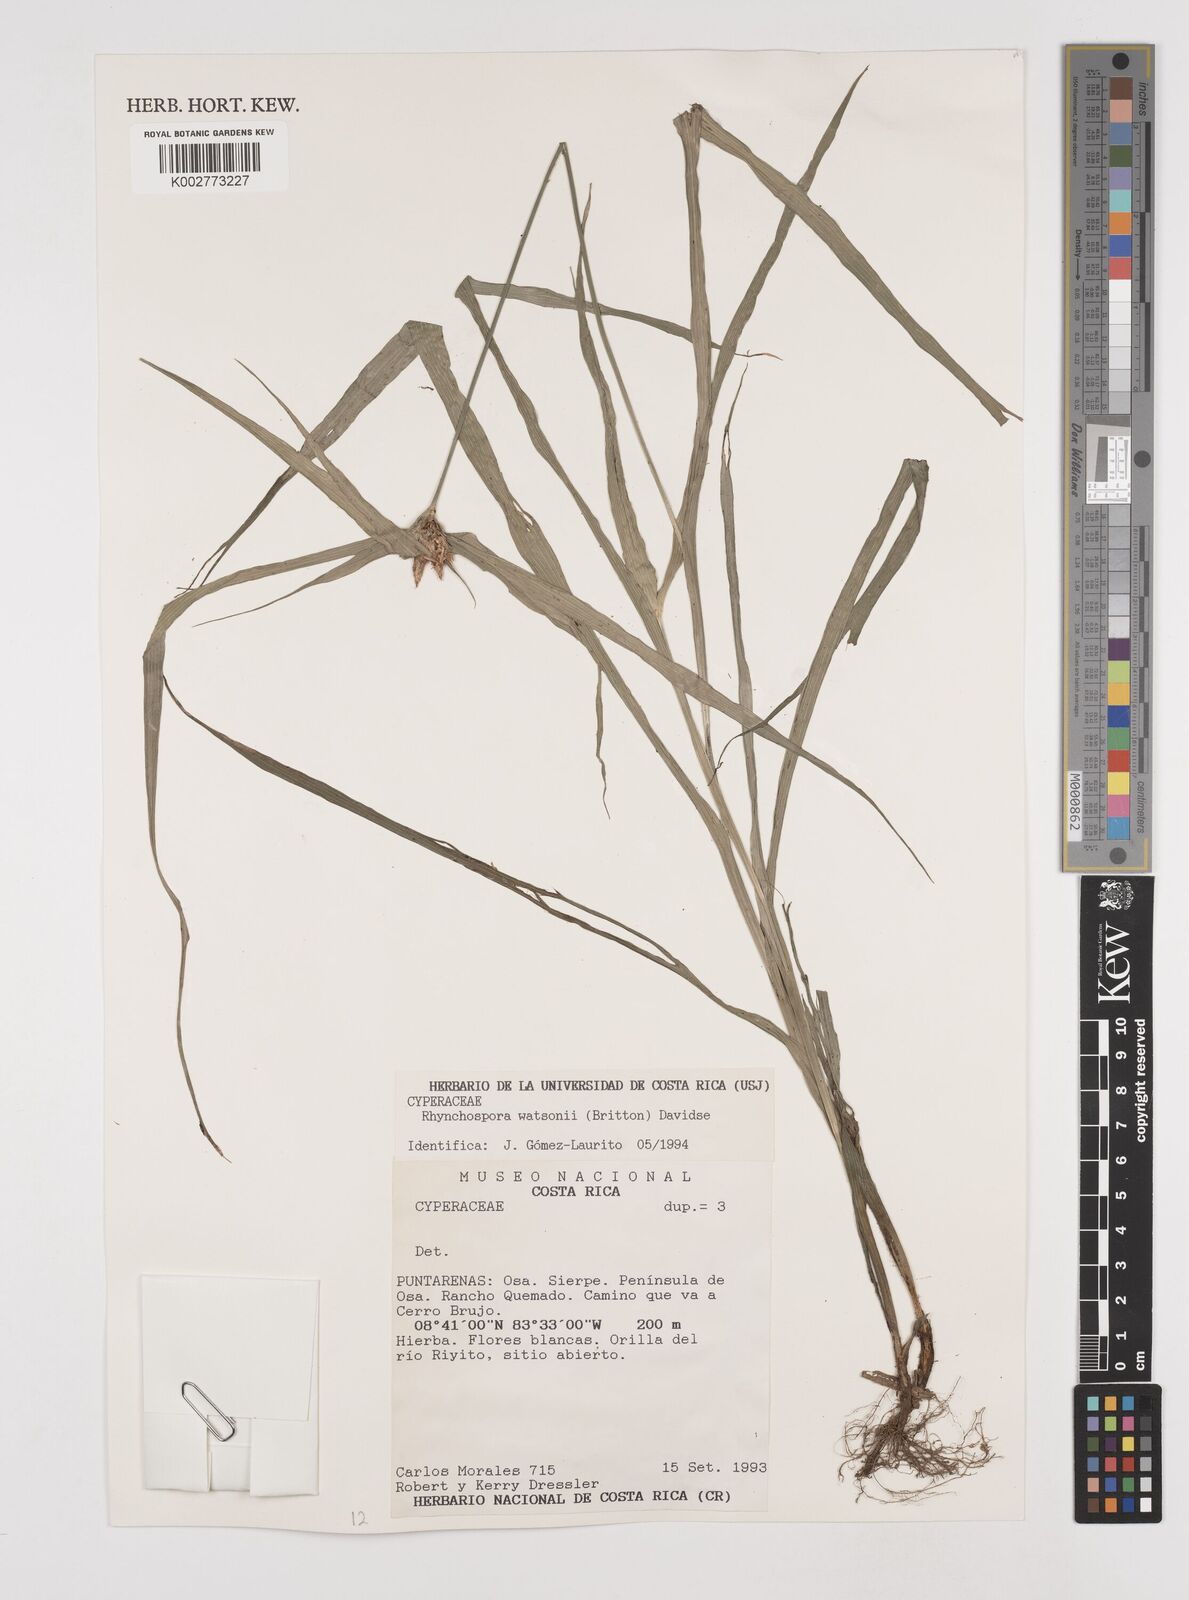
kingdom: Plantae
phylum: Tracheophyta
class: Liliopsida
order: Poales
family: Cyperaceae
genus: Rhynchospora
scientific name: Rhynchospora watsonii
